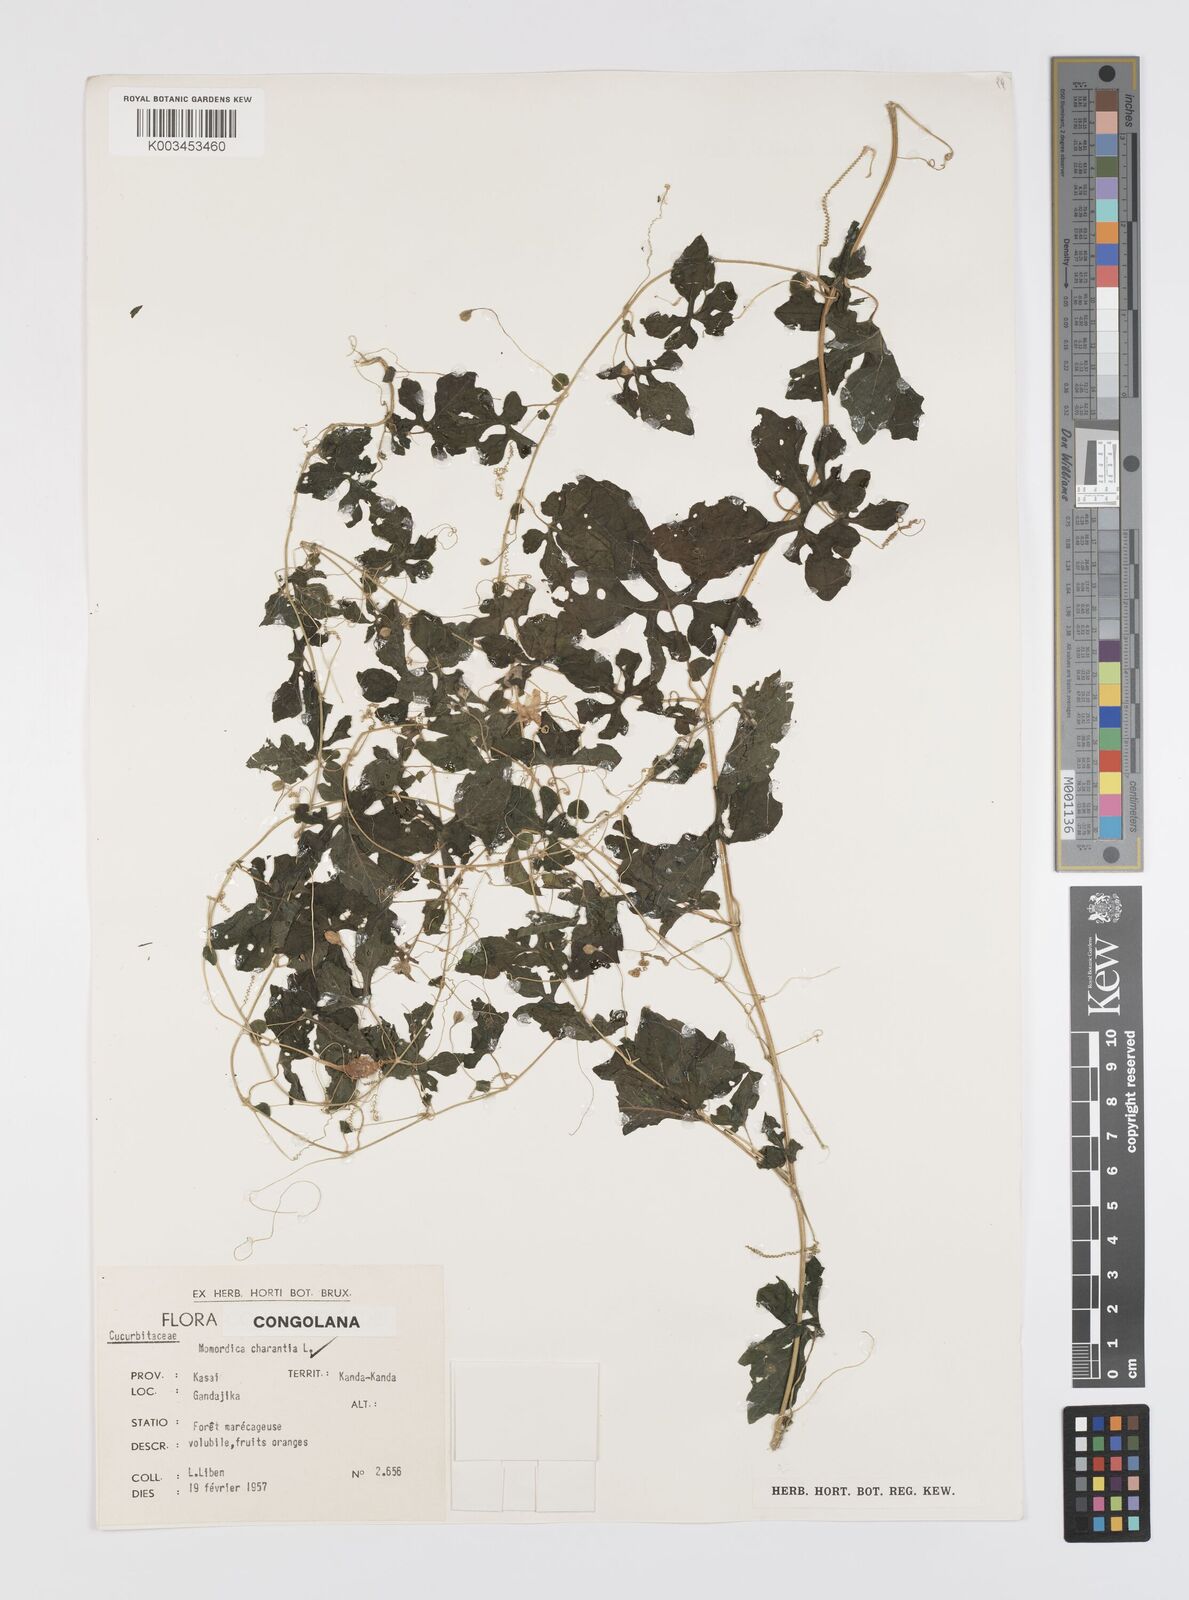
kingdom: Plantae
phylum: Tracheophyta
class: Magnoliopsida
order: Cucurbitales
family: Cucurbitaceae
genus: Momordica
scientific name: Momordica charantia
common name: Balsampear
